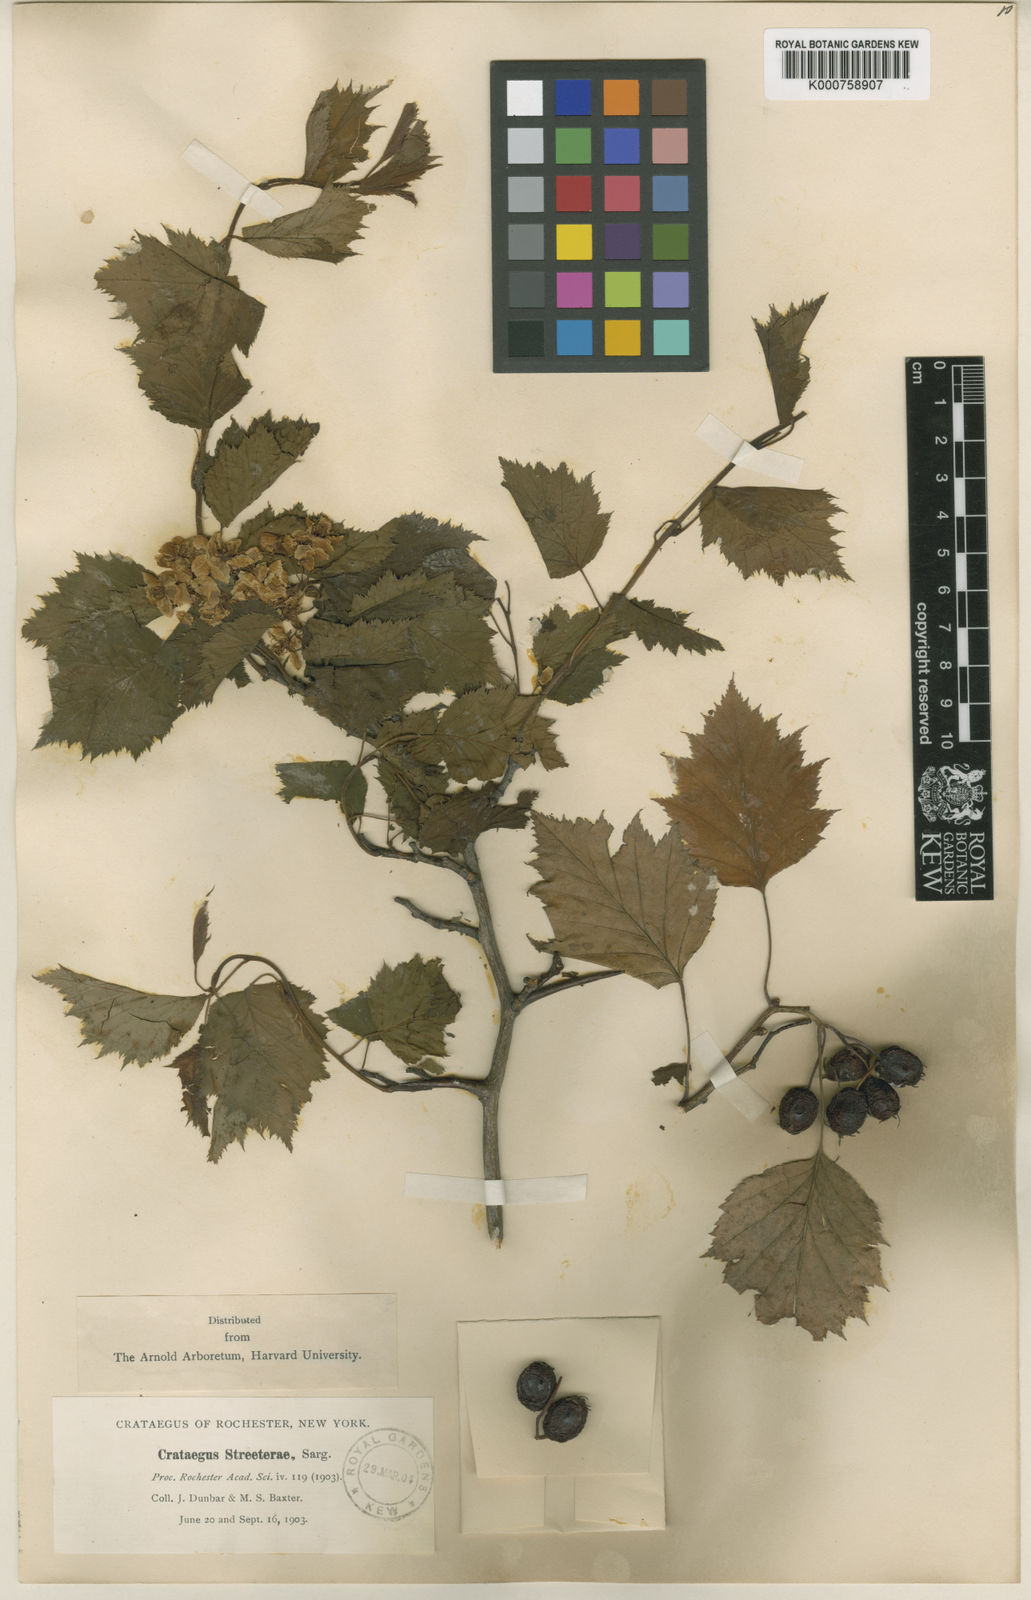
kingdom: Plantae
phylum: Tracheophyta
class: Magnoliopsida
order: Rosales
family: Rosaceae
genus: Crataegus
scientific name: Crataegus streeterae
